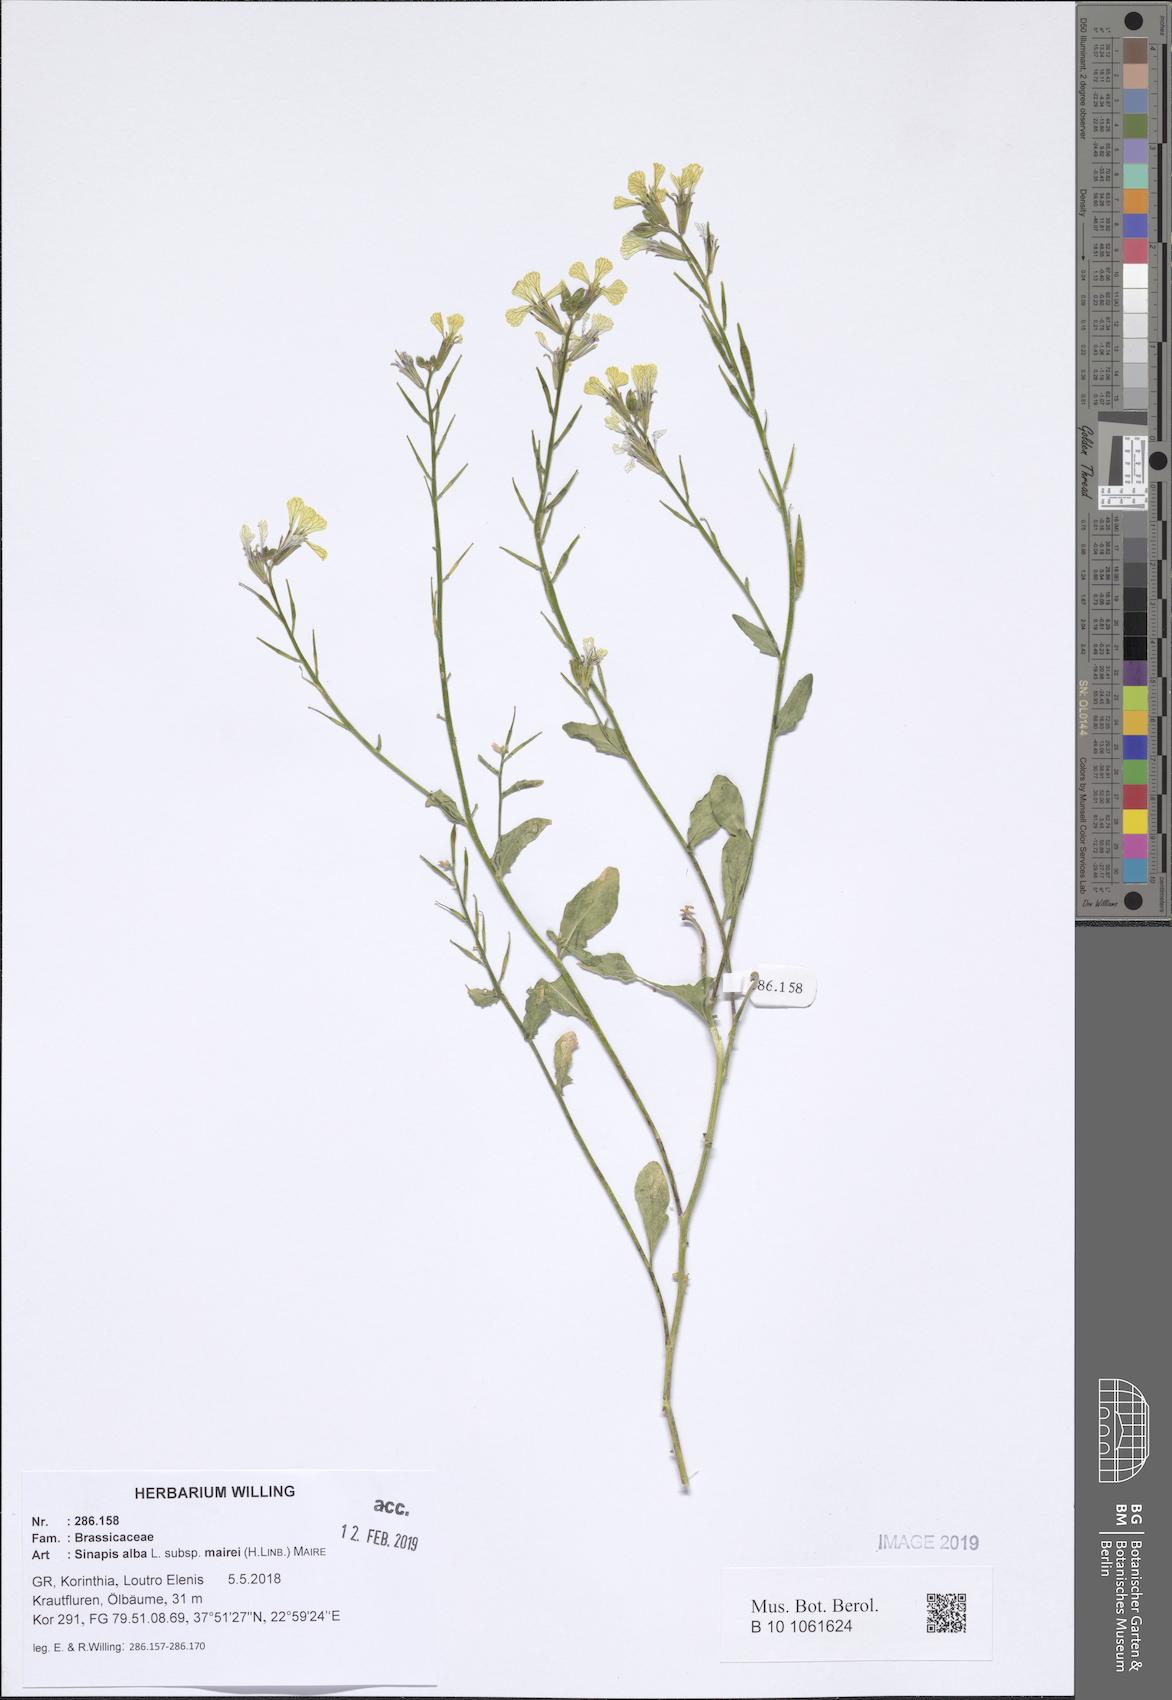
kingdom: Plantae
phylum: Tracheophyta
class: Magnoliopsida
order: Brassicales
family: Brassicaceae
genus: Sinapis
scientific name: Sinapis alba
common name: White mustard
